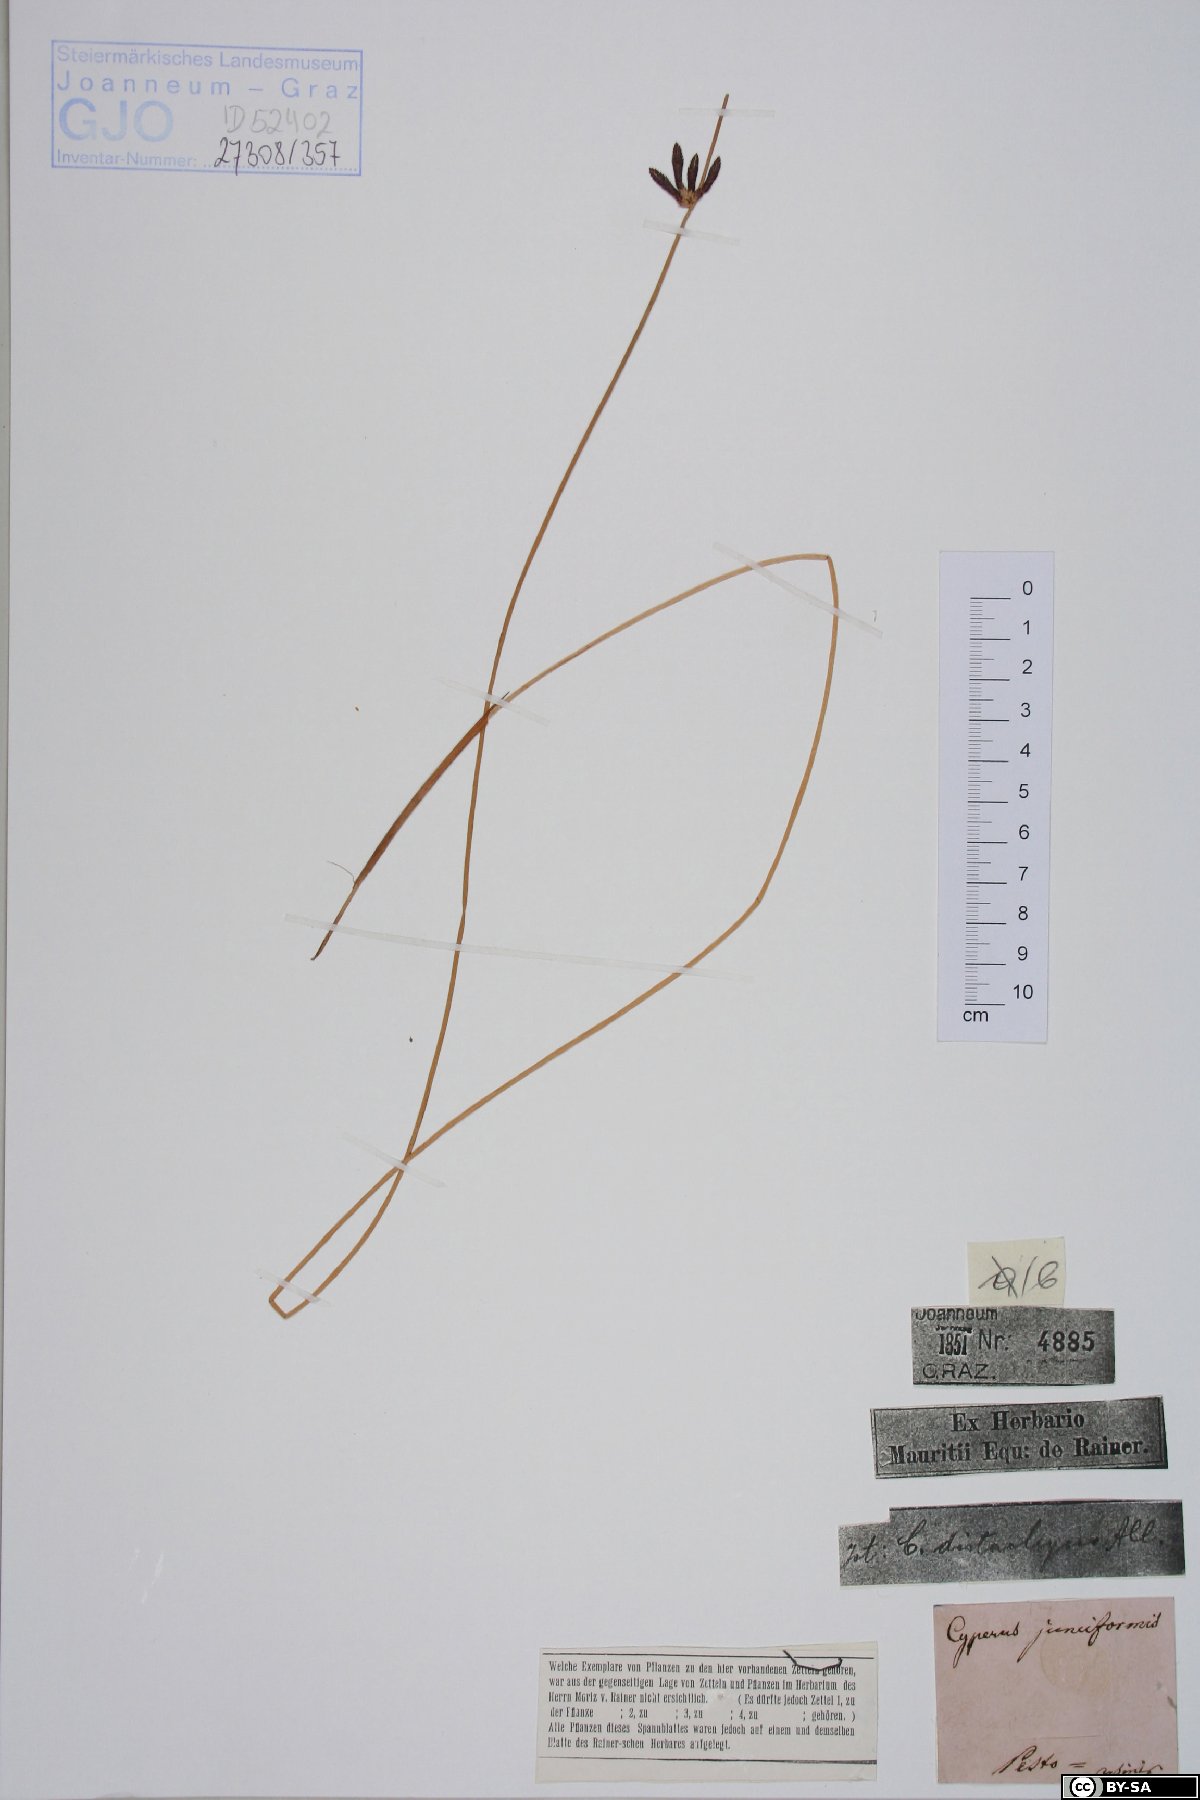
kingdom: Plantae
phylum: Tracheophyta
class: Liliopsida
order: Poales
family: Cyperaceae
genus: Cyperus
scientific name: Cyperus laevigatus
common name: Smooth flat sedge
